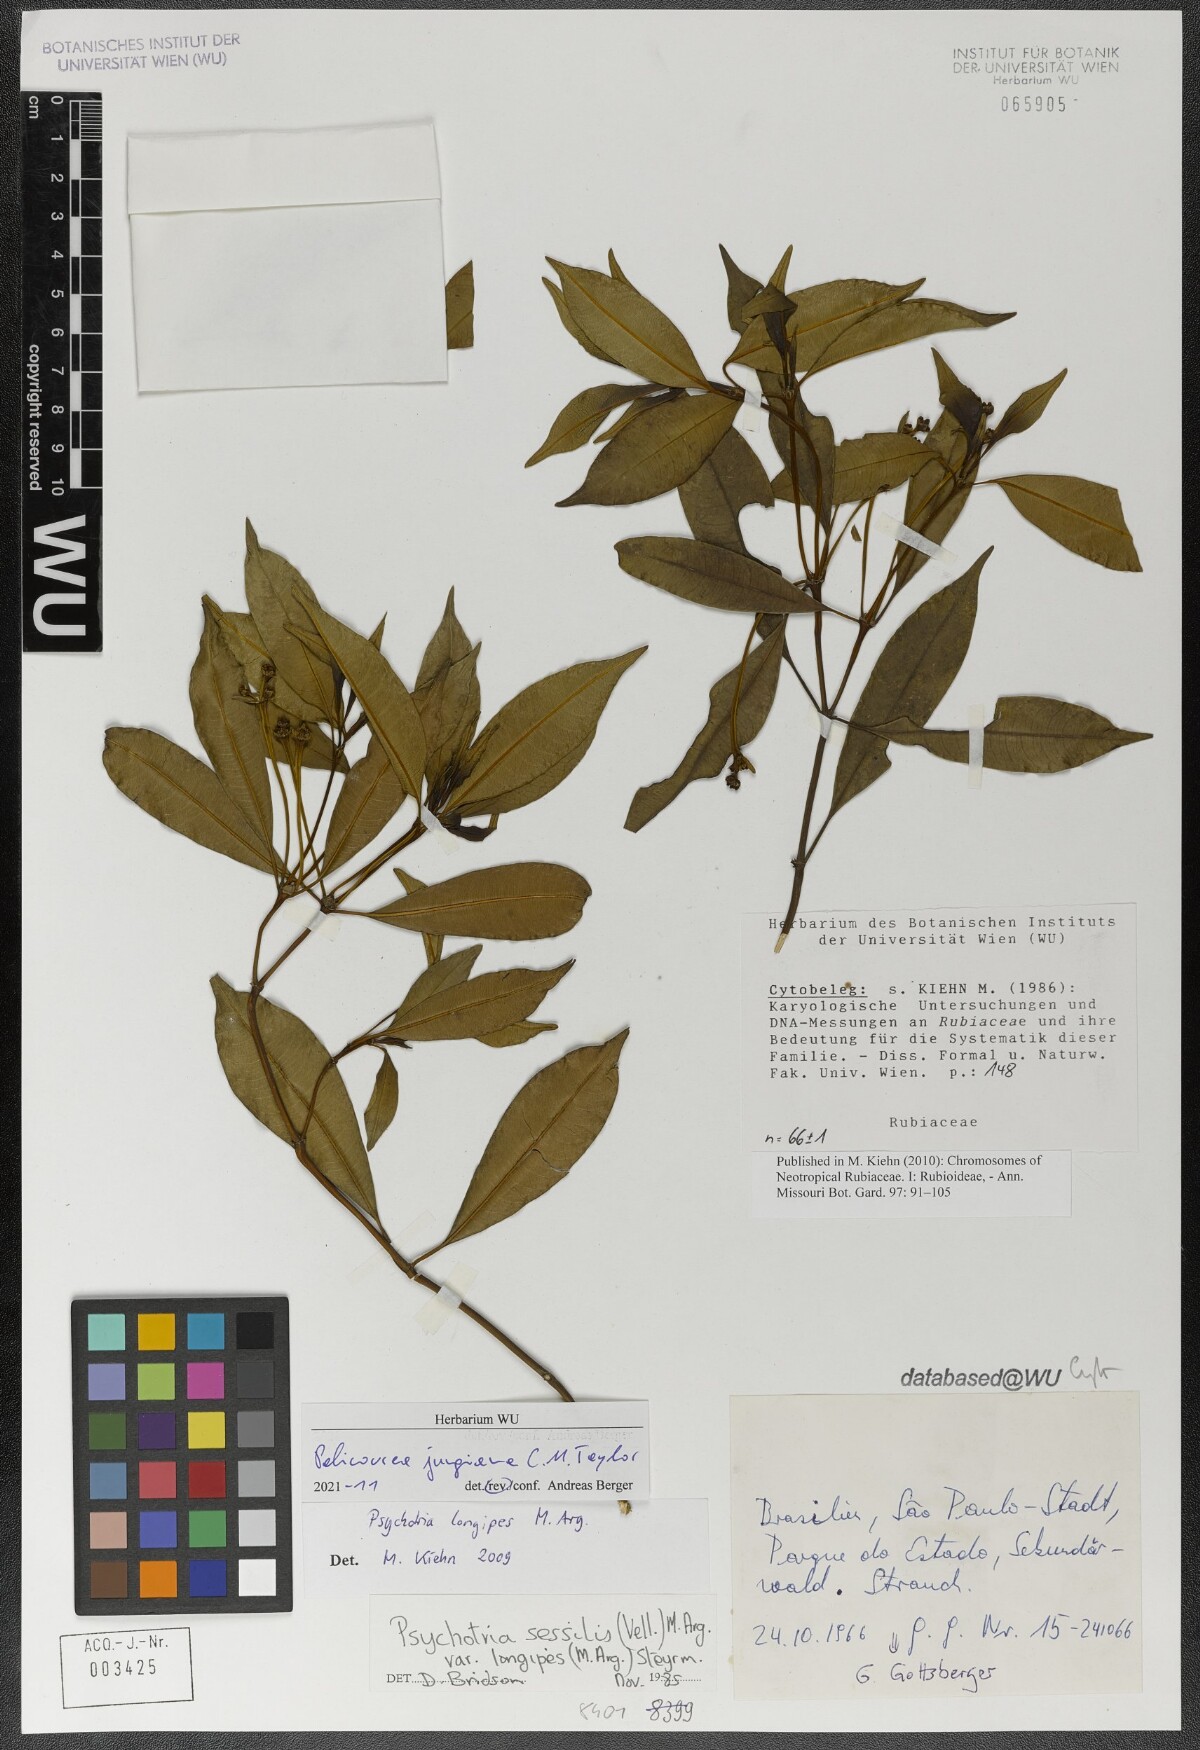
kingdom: Plantae
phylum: Tracheophyta
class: Magnoliopsida
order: Gentianales
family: Rubiaceae
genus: Palicourea
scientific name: Palicourea jungiana
